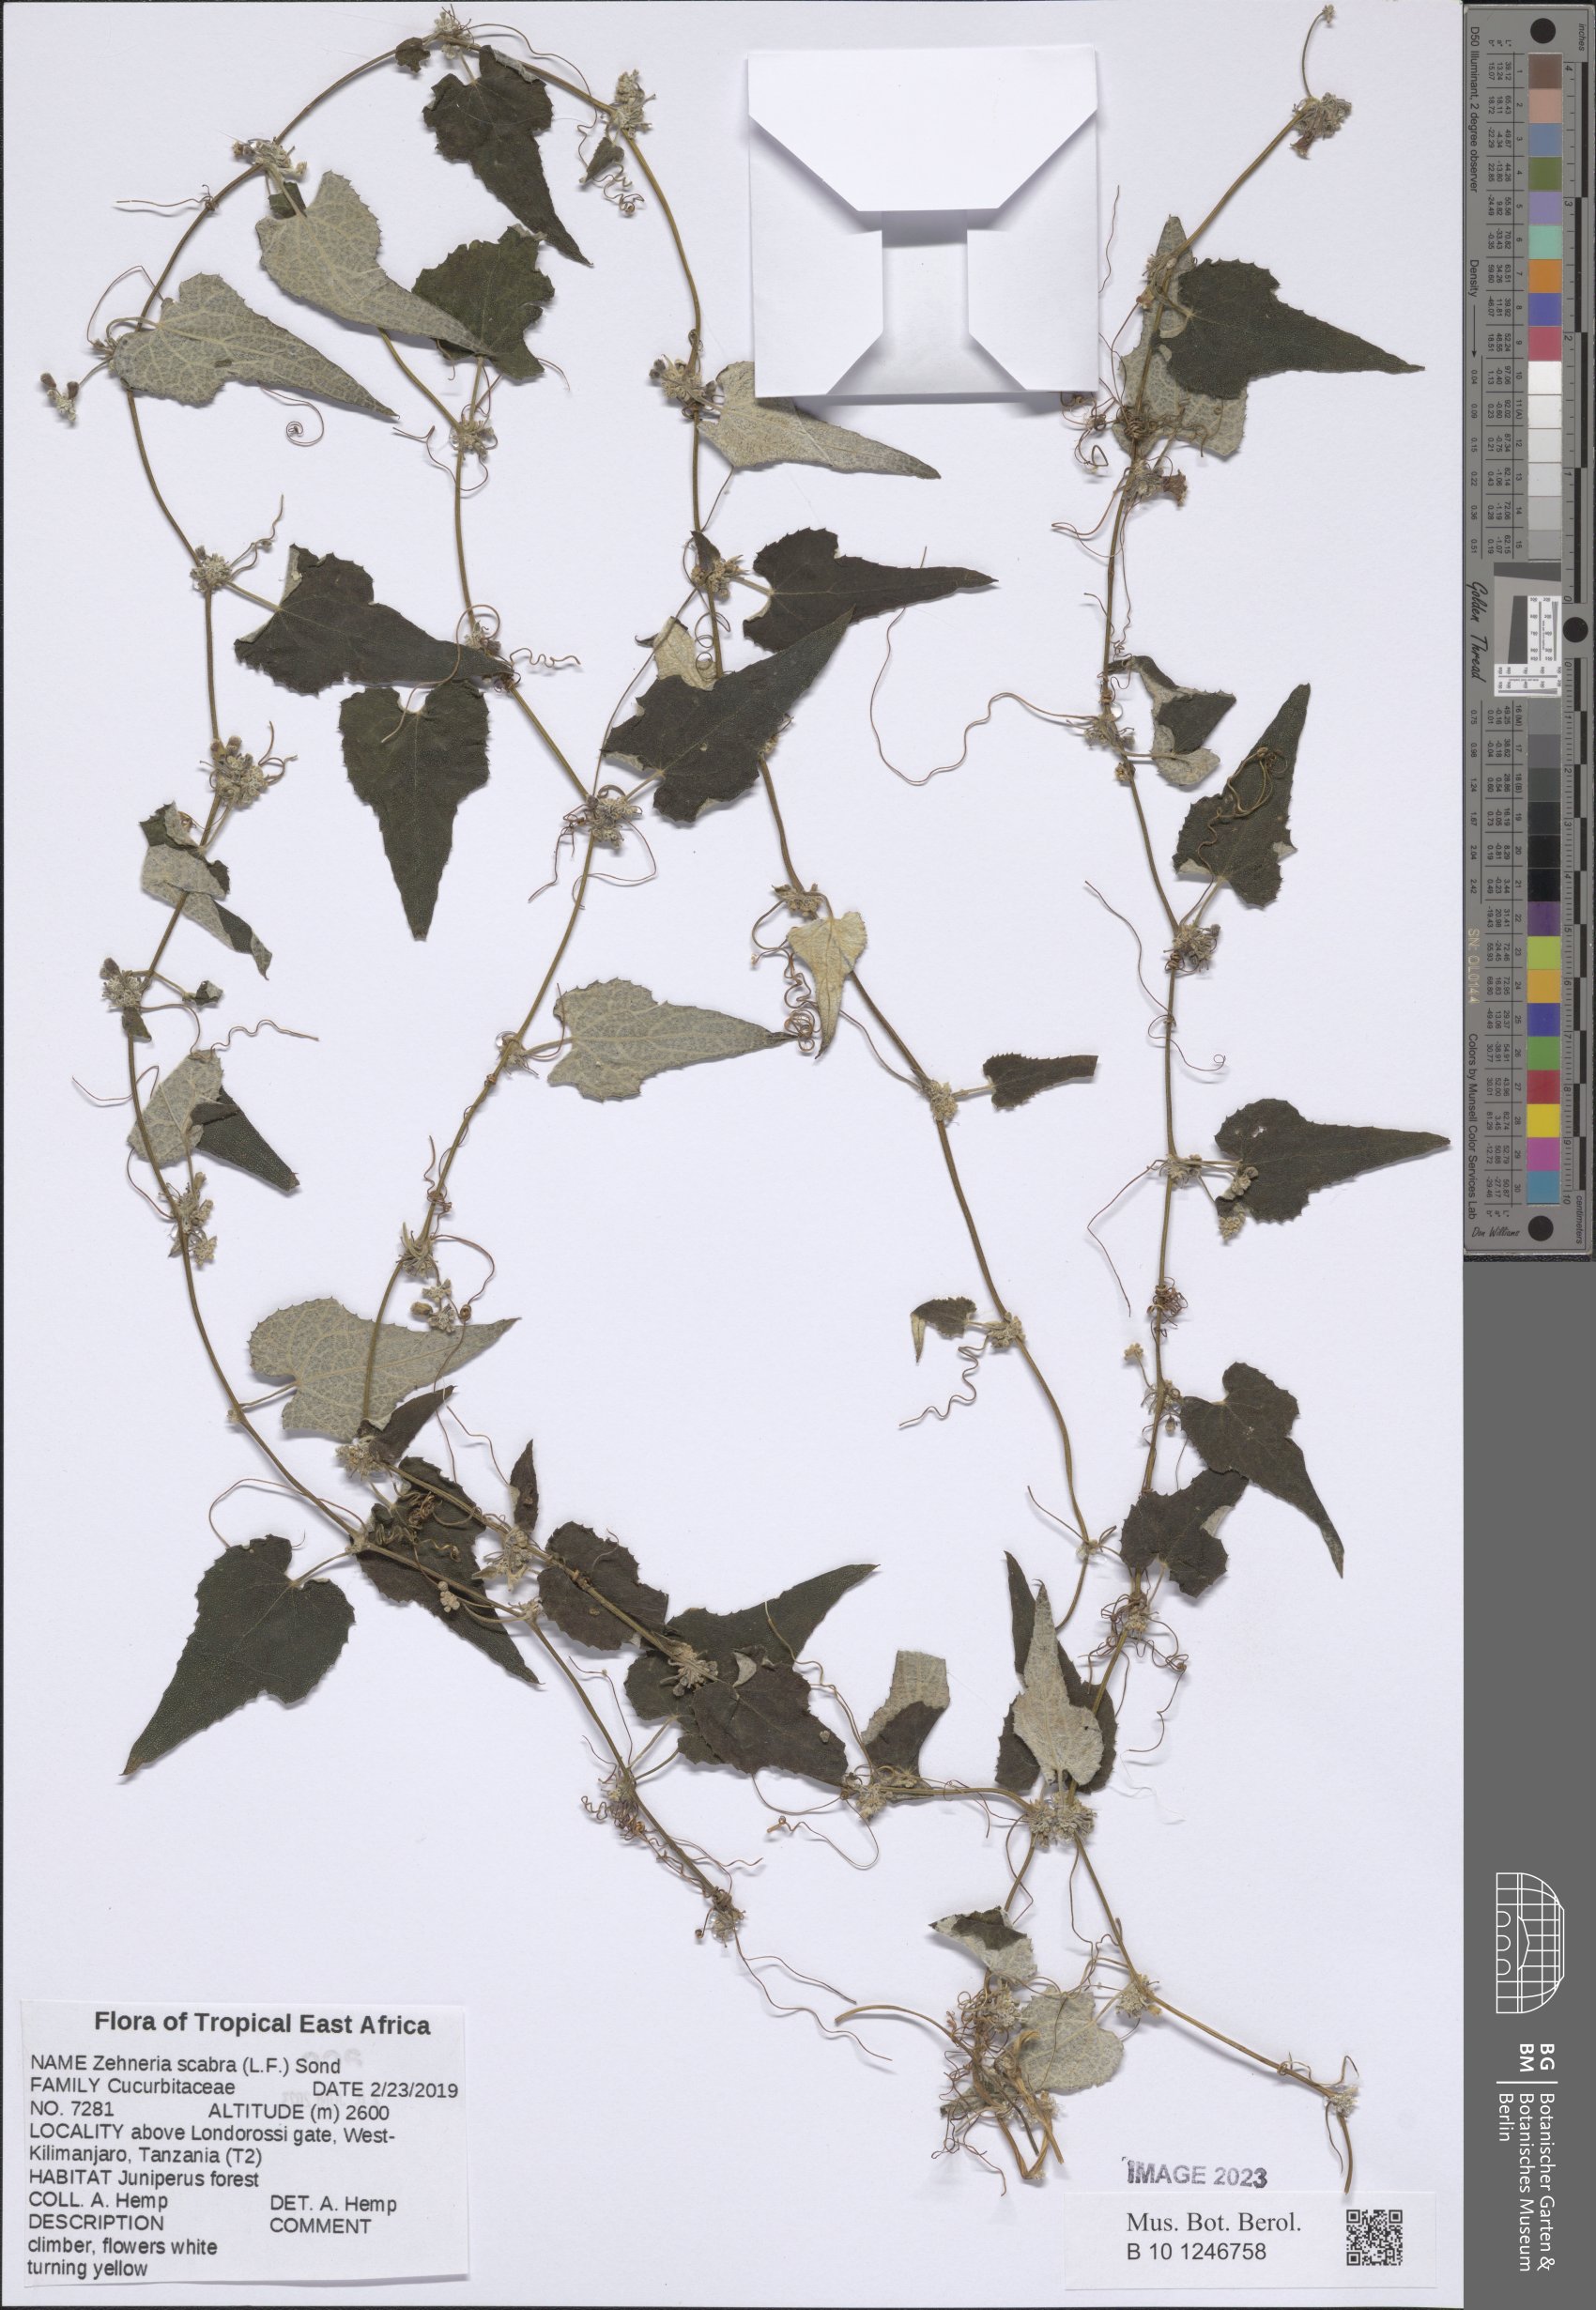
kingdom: Plantae
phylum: Tracheophyta
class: Magnoliopsida
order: Cucurbitales
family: Cucurbitaceae
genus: Zehneria
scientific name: Zehneria scabra
